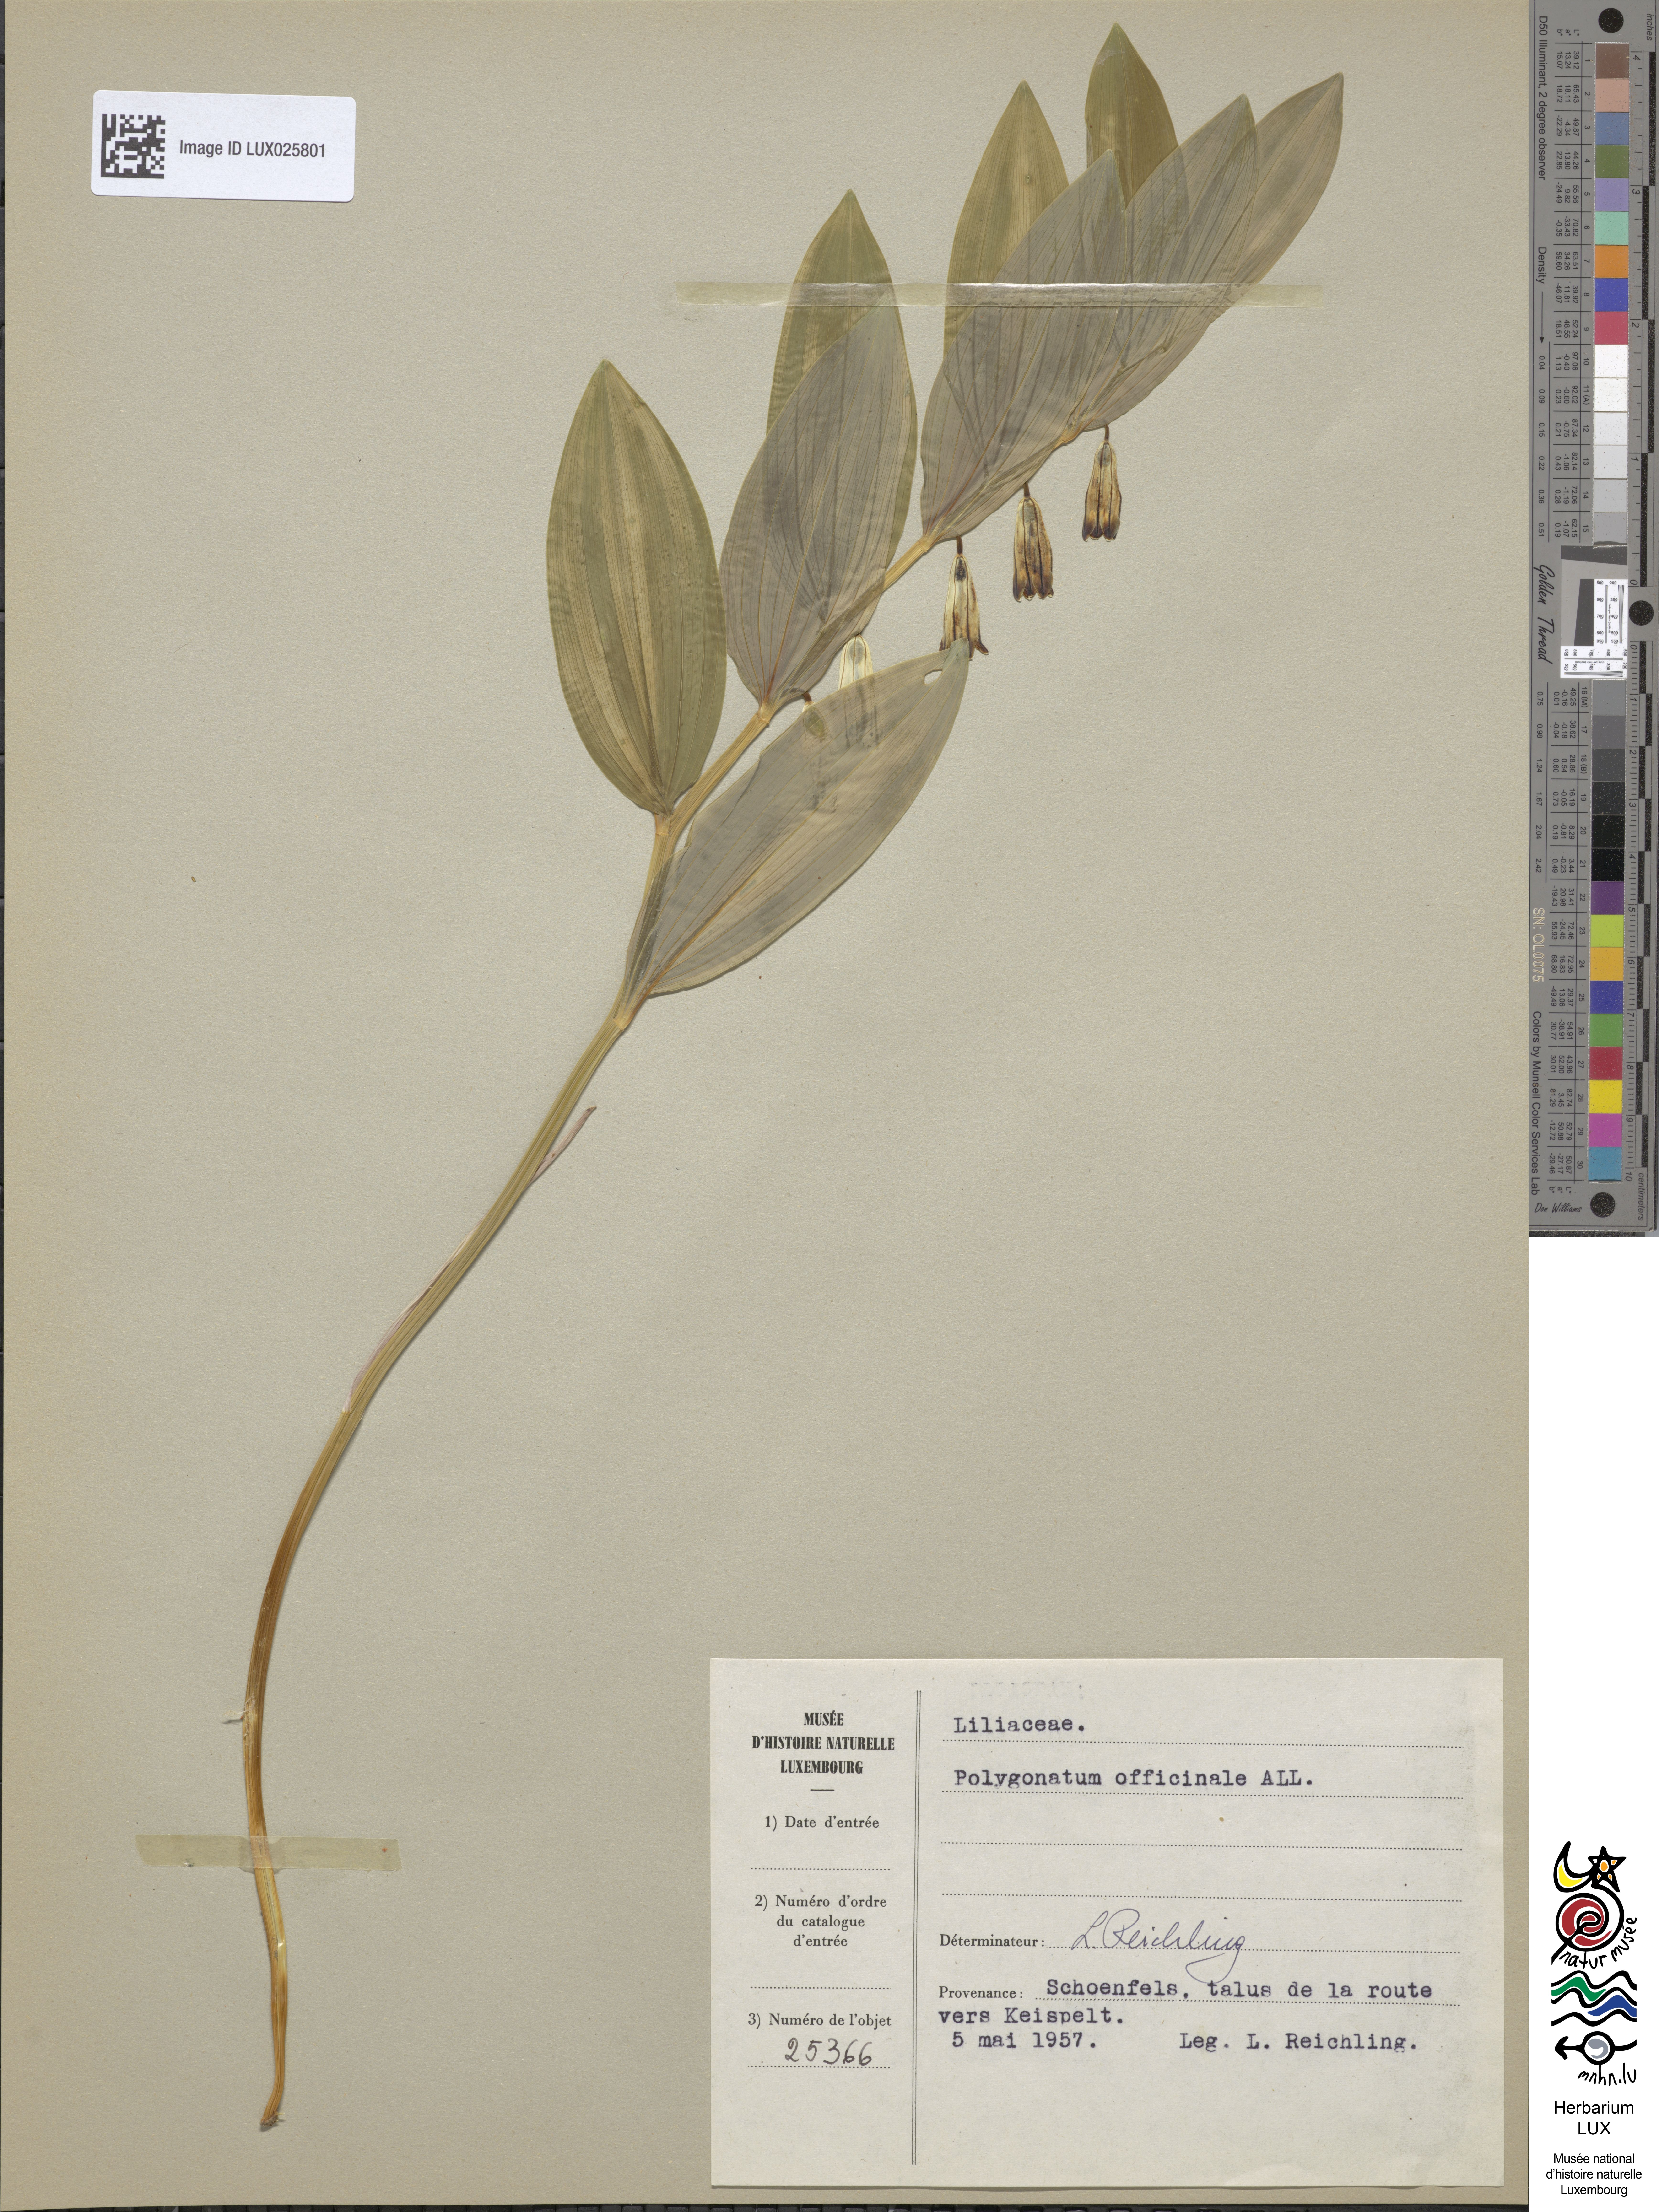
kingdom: Plantae
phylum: Tracheophyta
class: Liliopsida
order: Asparagales
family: Asparagaceae
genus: Polygonatum
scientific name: Polygonatum odoratum
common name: Angular solomon's-seal
